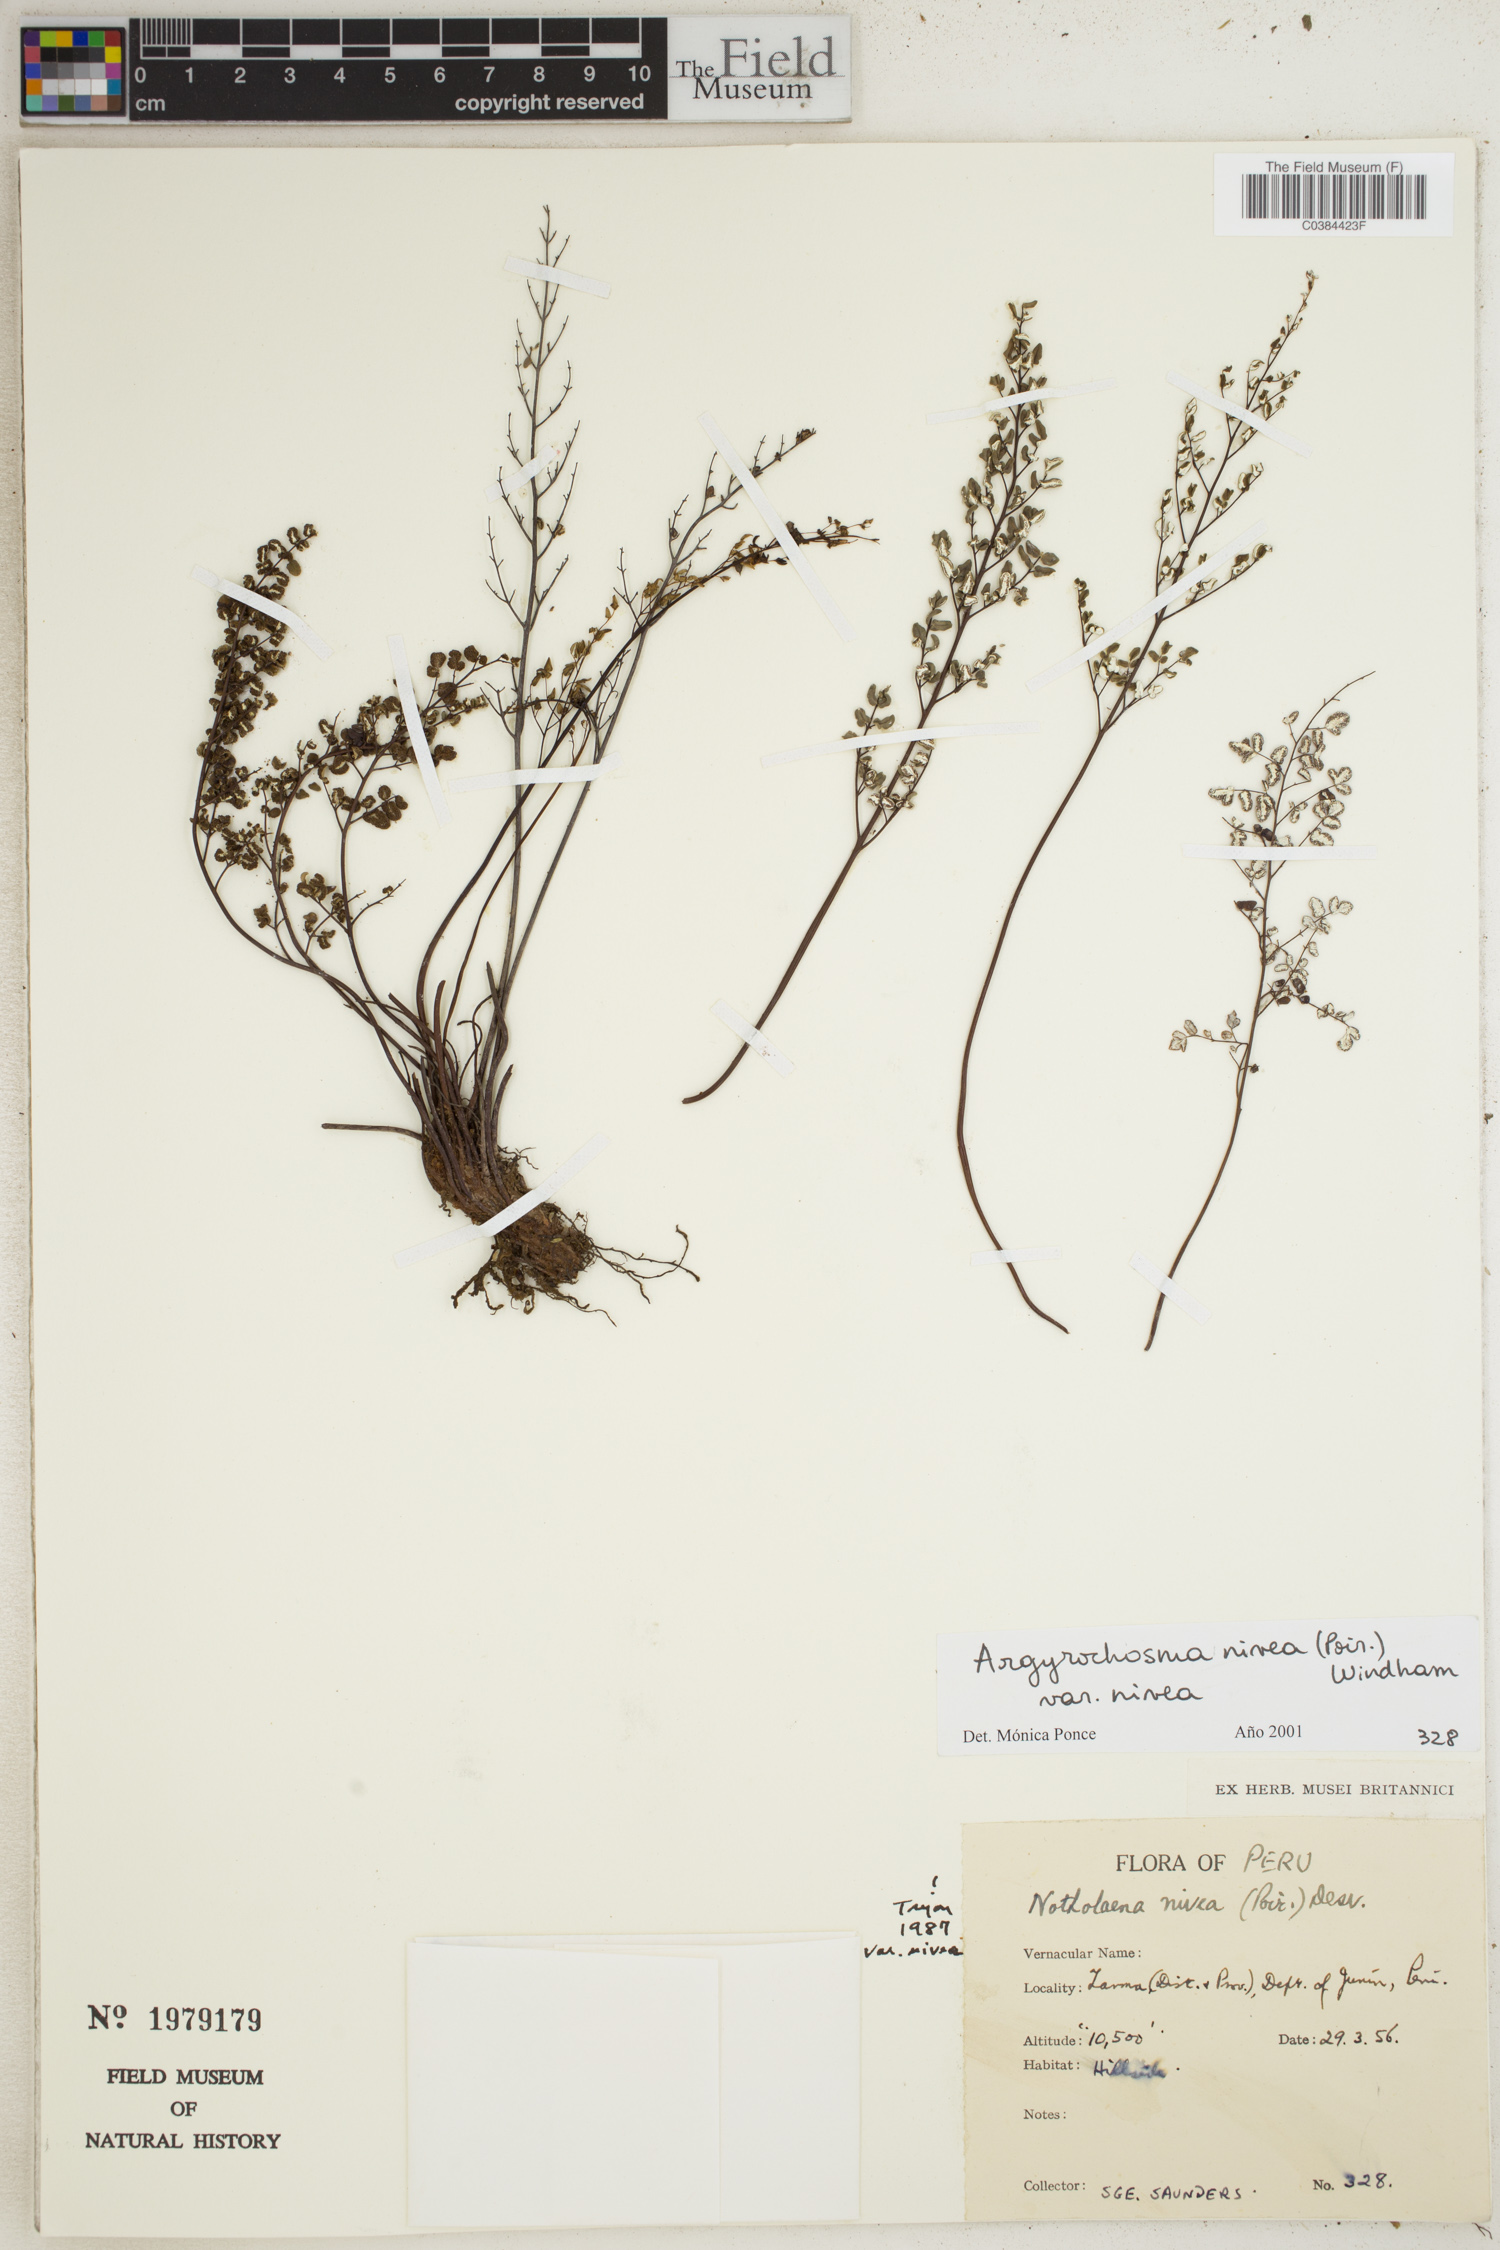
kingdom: Plantae
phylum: Tracheophyta
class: Polypodiopsida
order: Polypodiales
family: Pteridaceae
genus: Argyrochosma
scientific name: Argyrochosma nivea
